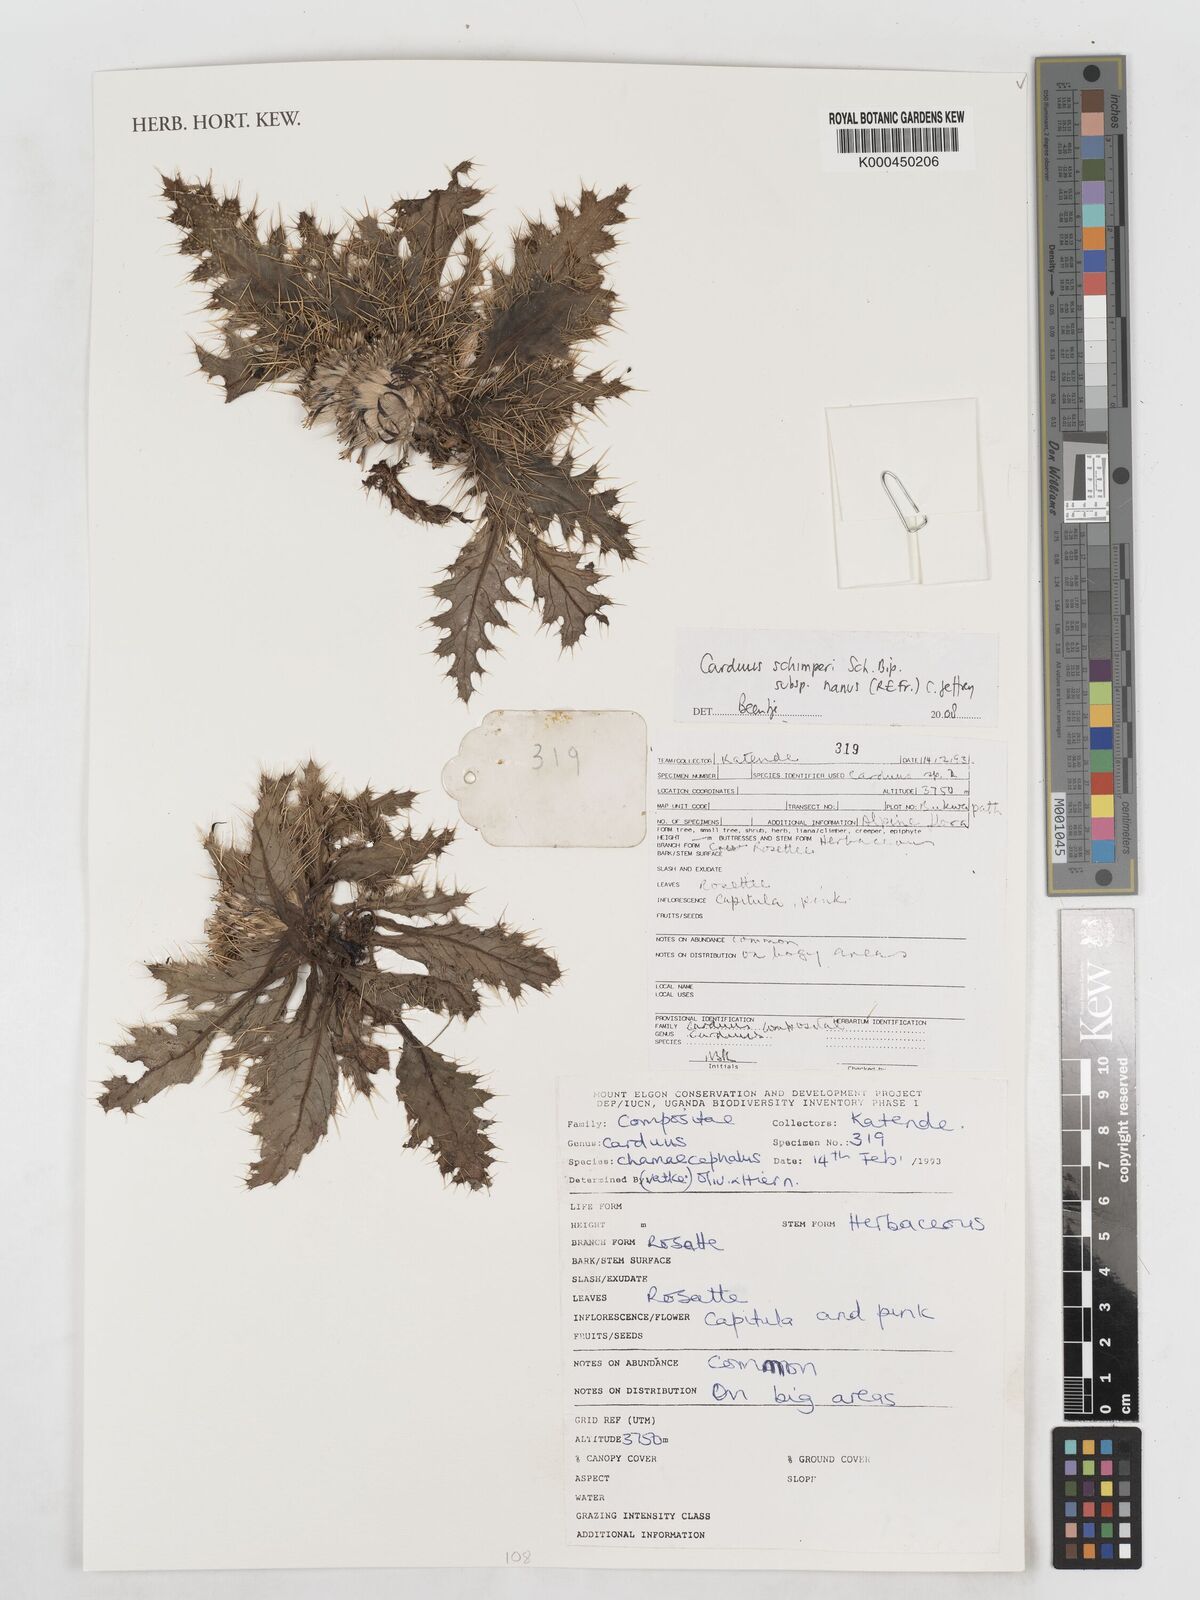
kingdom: Plantae
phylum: Tracheophyta
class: Magnoliopsida
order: Asterales
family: Asteraceae
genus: Carduus
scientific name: Carduus
